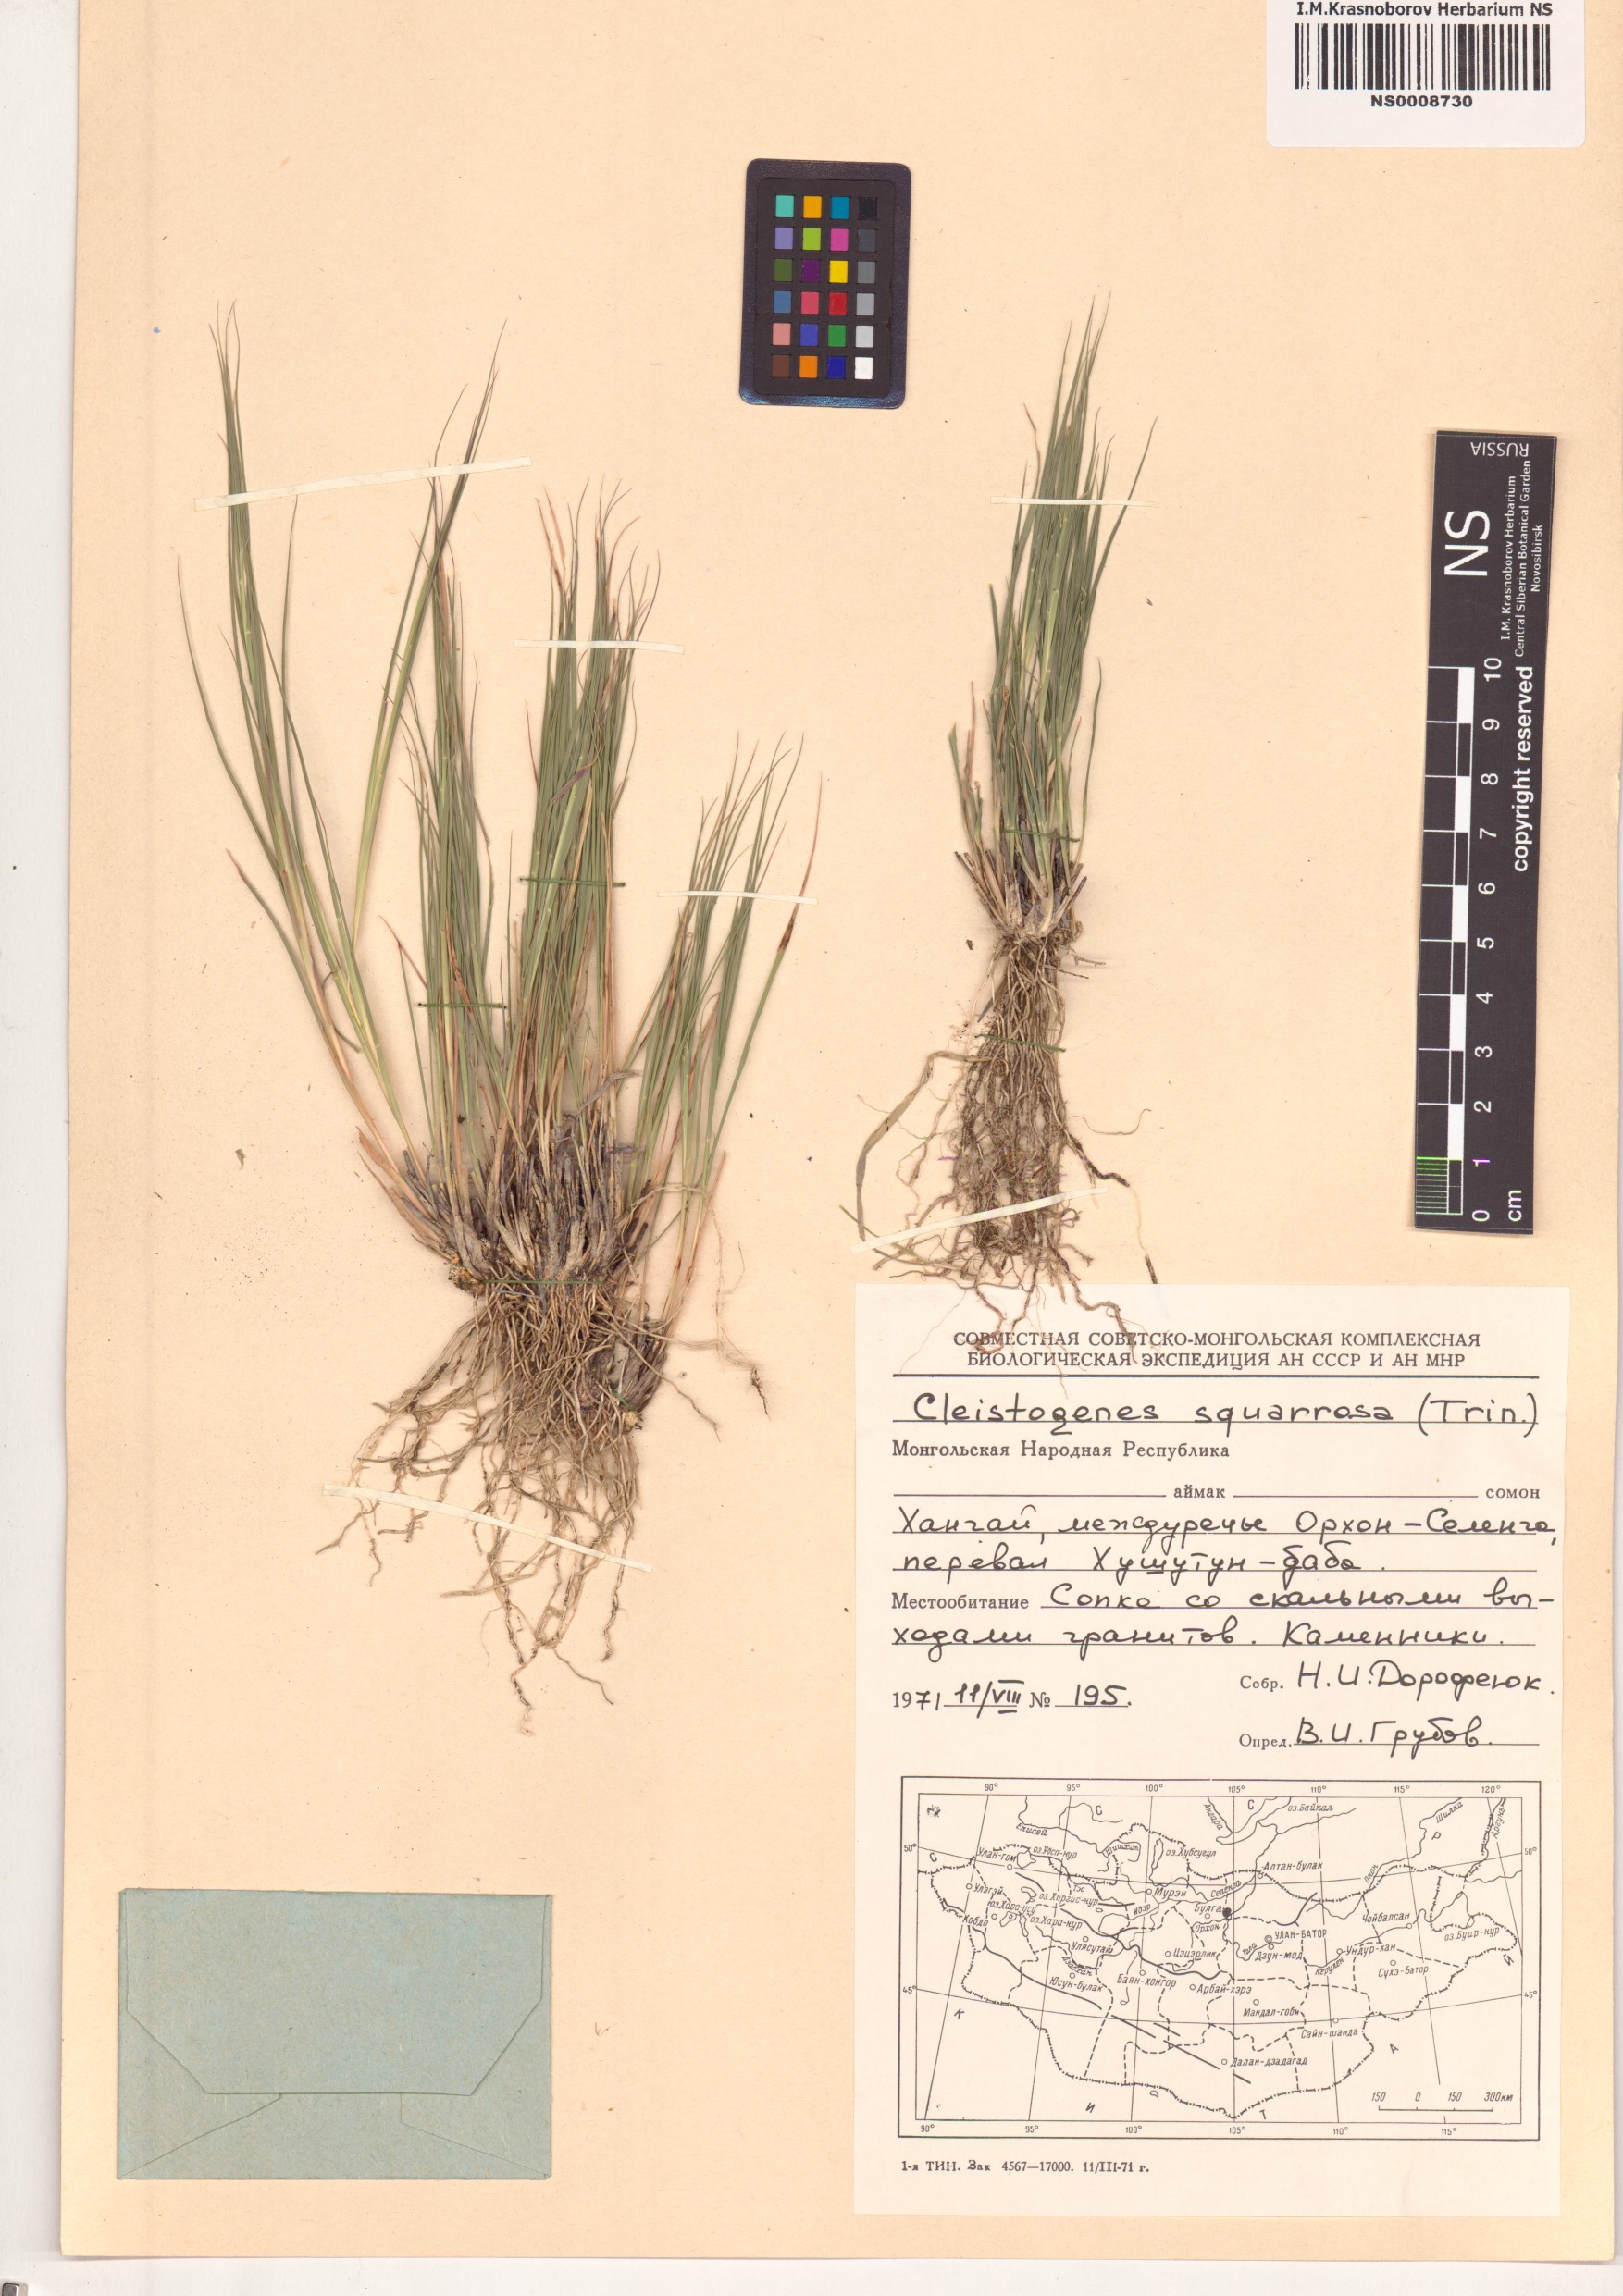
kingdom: Plantae
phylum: Tracheophyta
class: Liliopsida
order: Poales
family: Poaceae
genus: Cleistogenes
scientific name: Cleistogenes squarrosa
